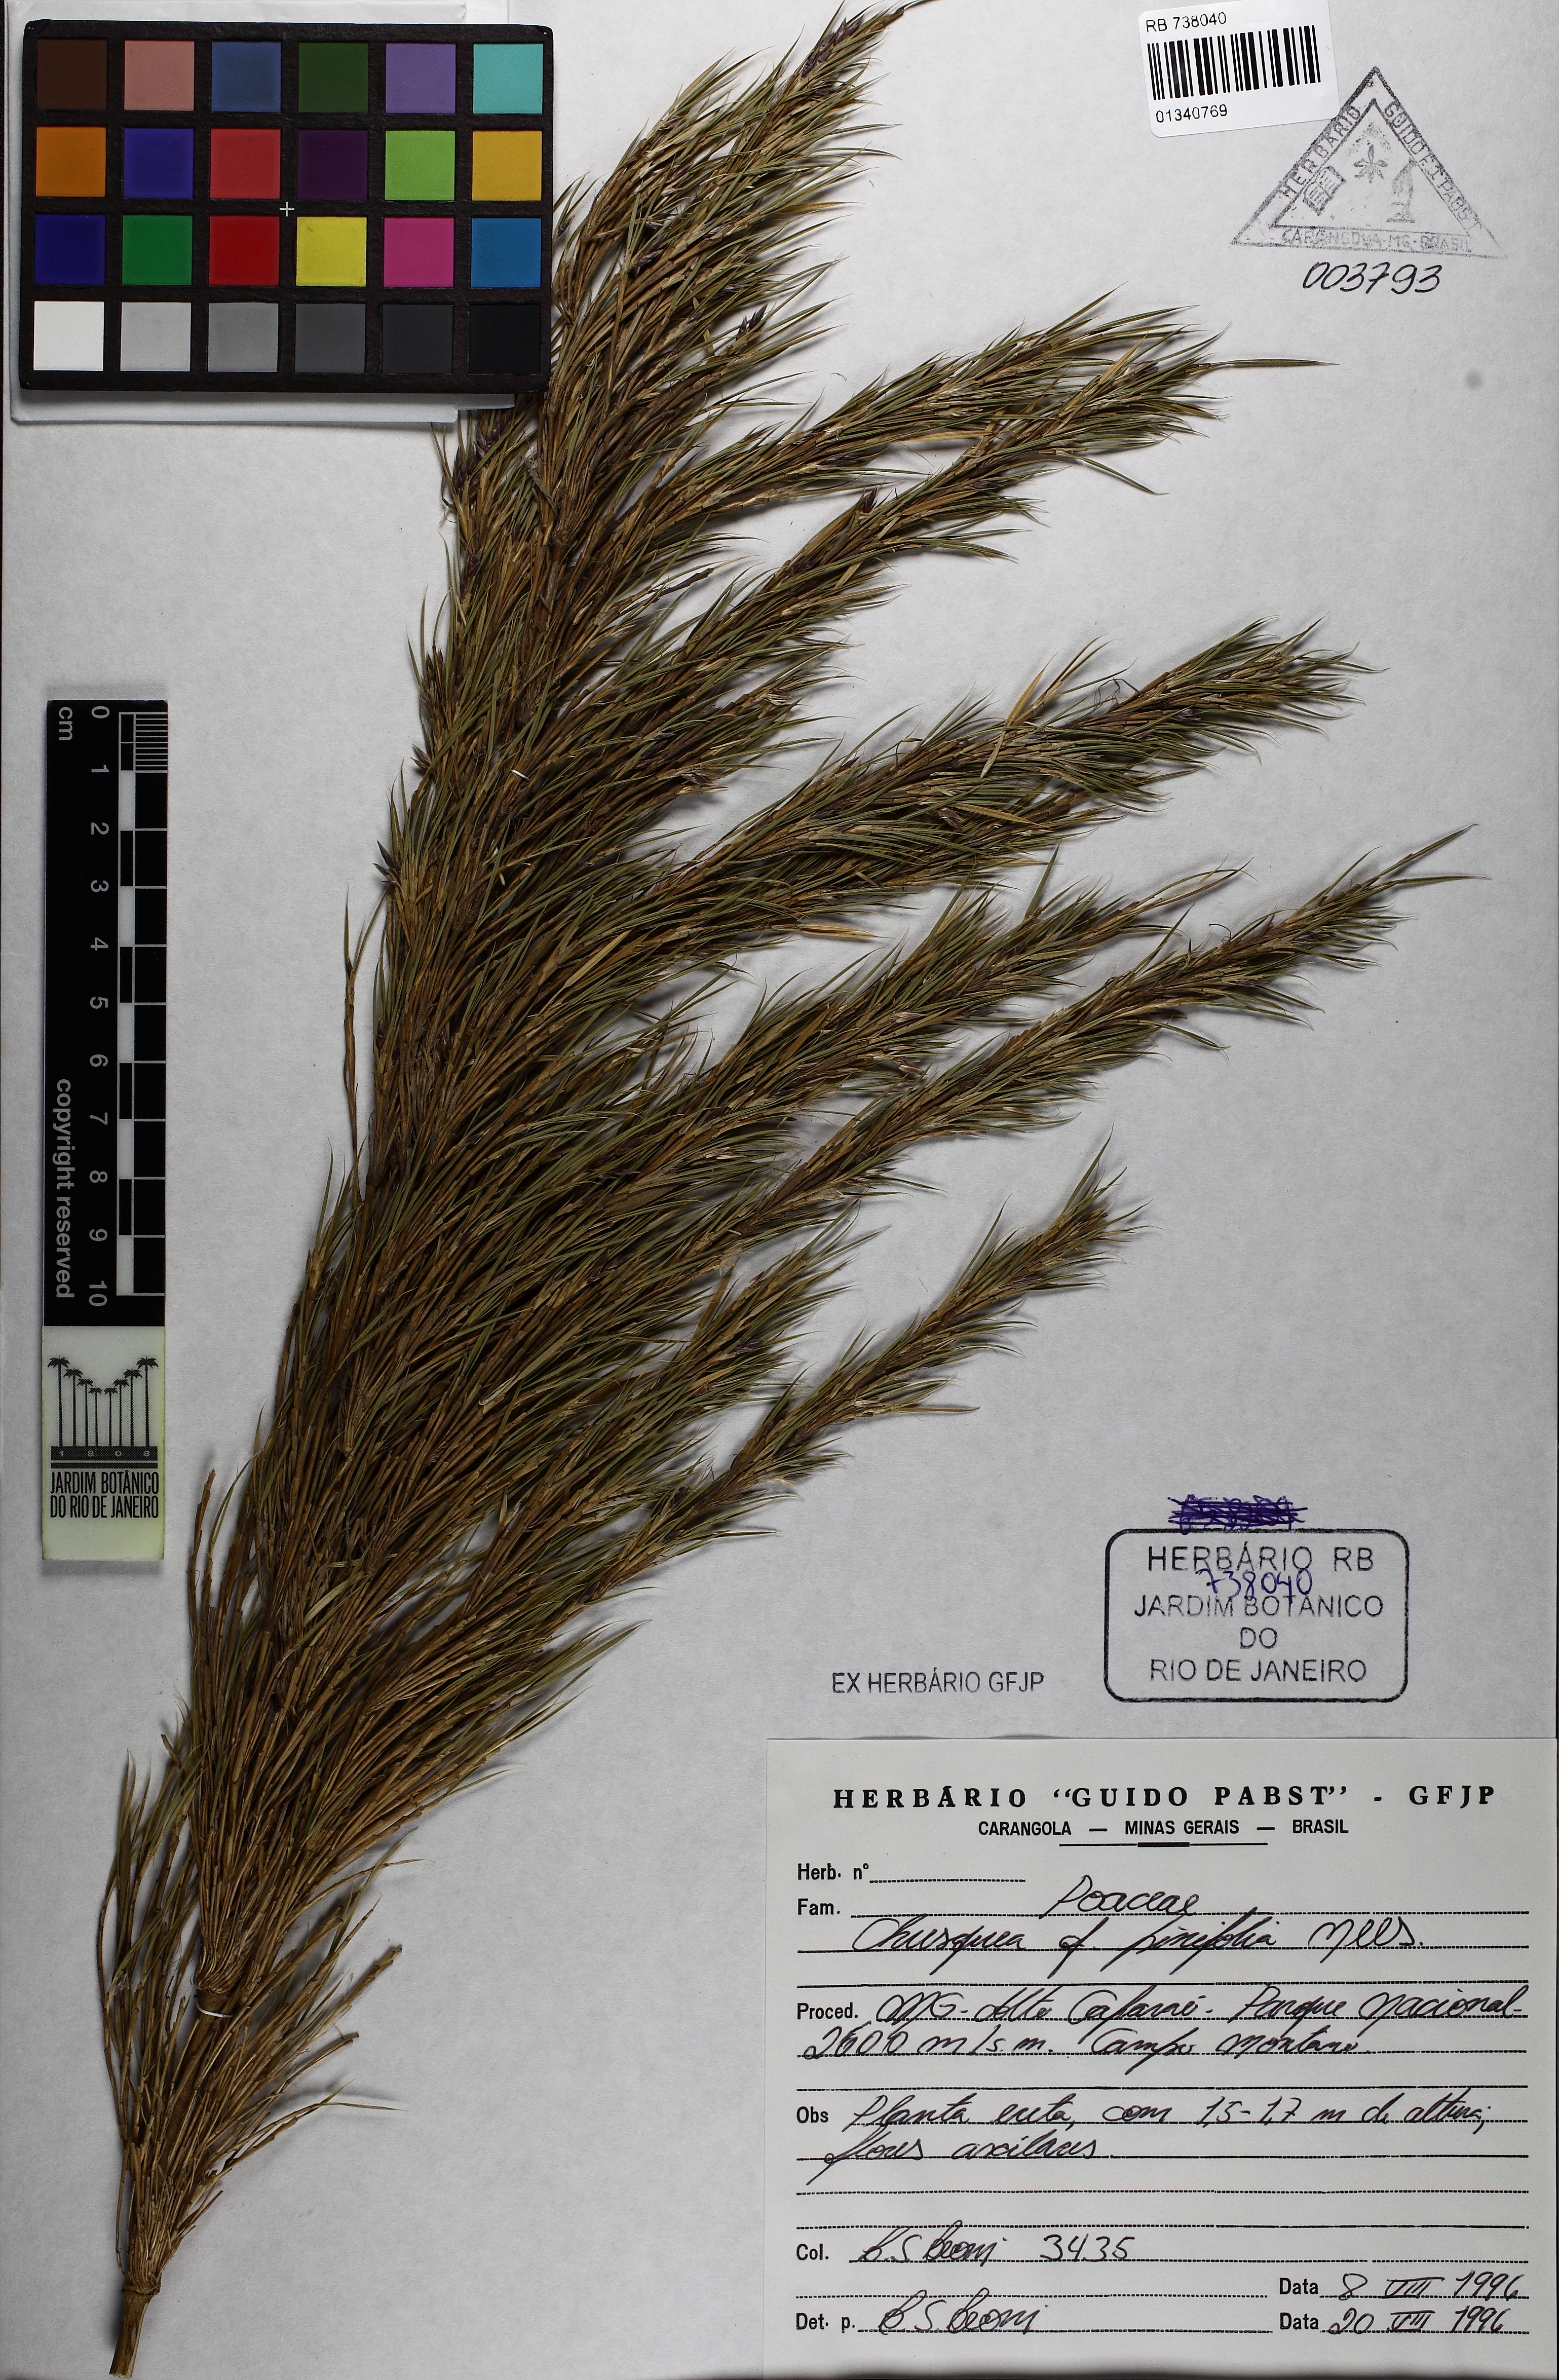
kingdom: Plantae
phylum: Tracheophyta
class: Liliopsida
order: Poales
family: Poaceae
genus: Chusquea
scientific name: Chusquea pinifolia
